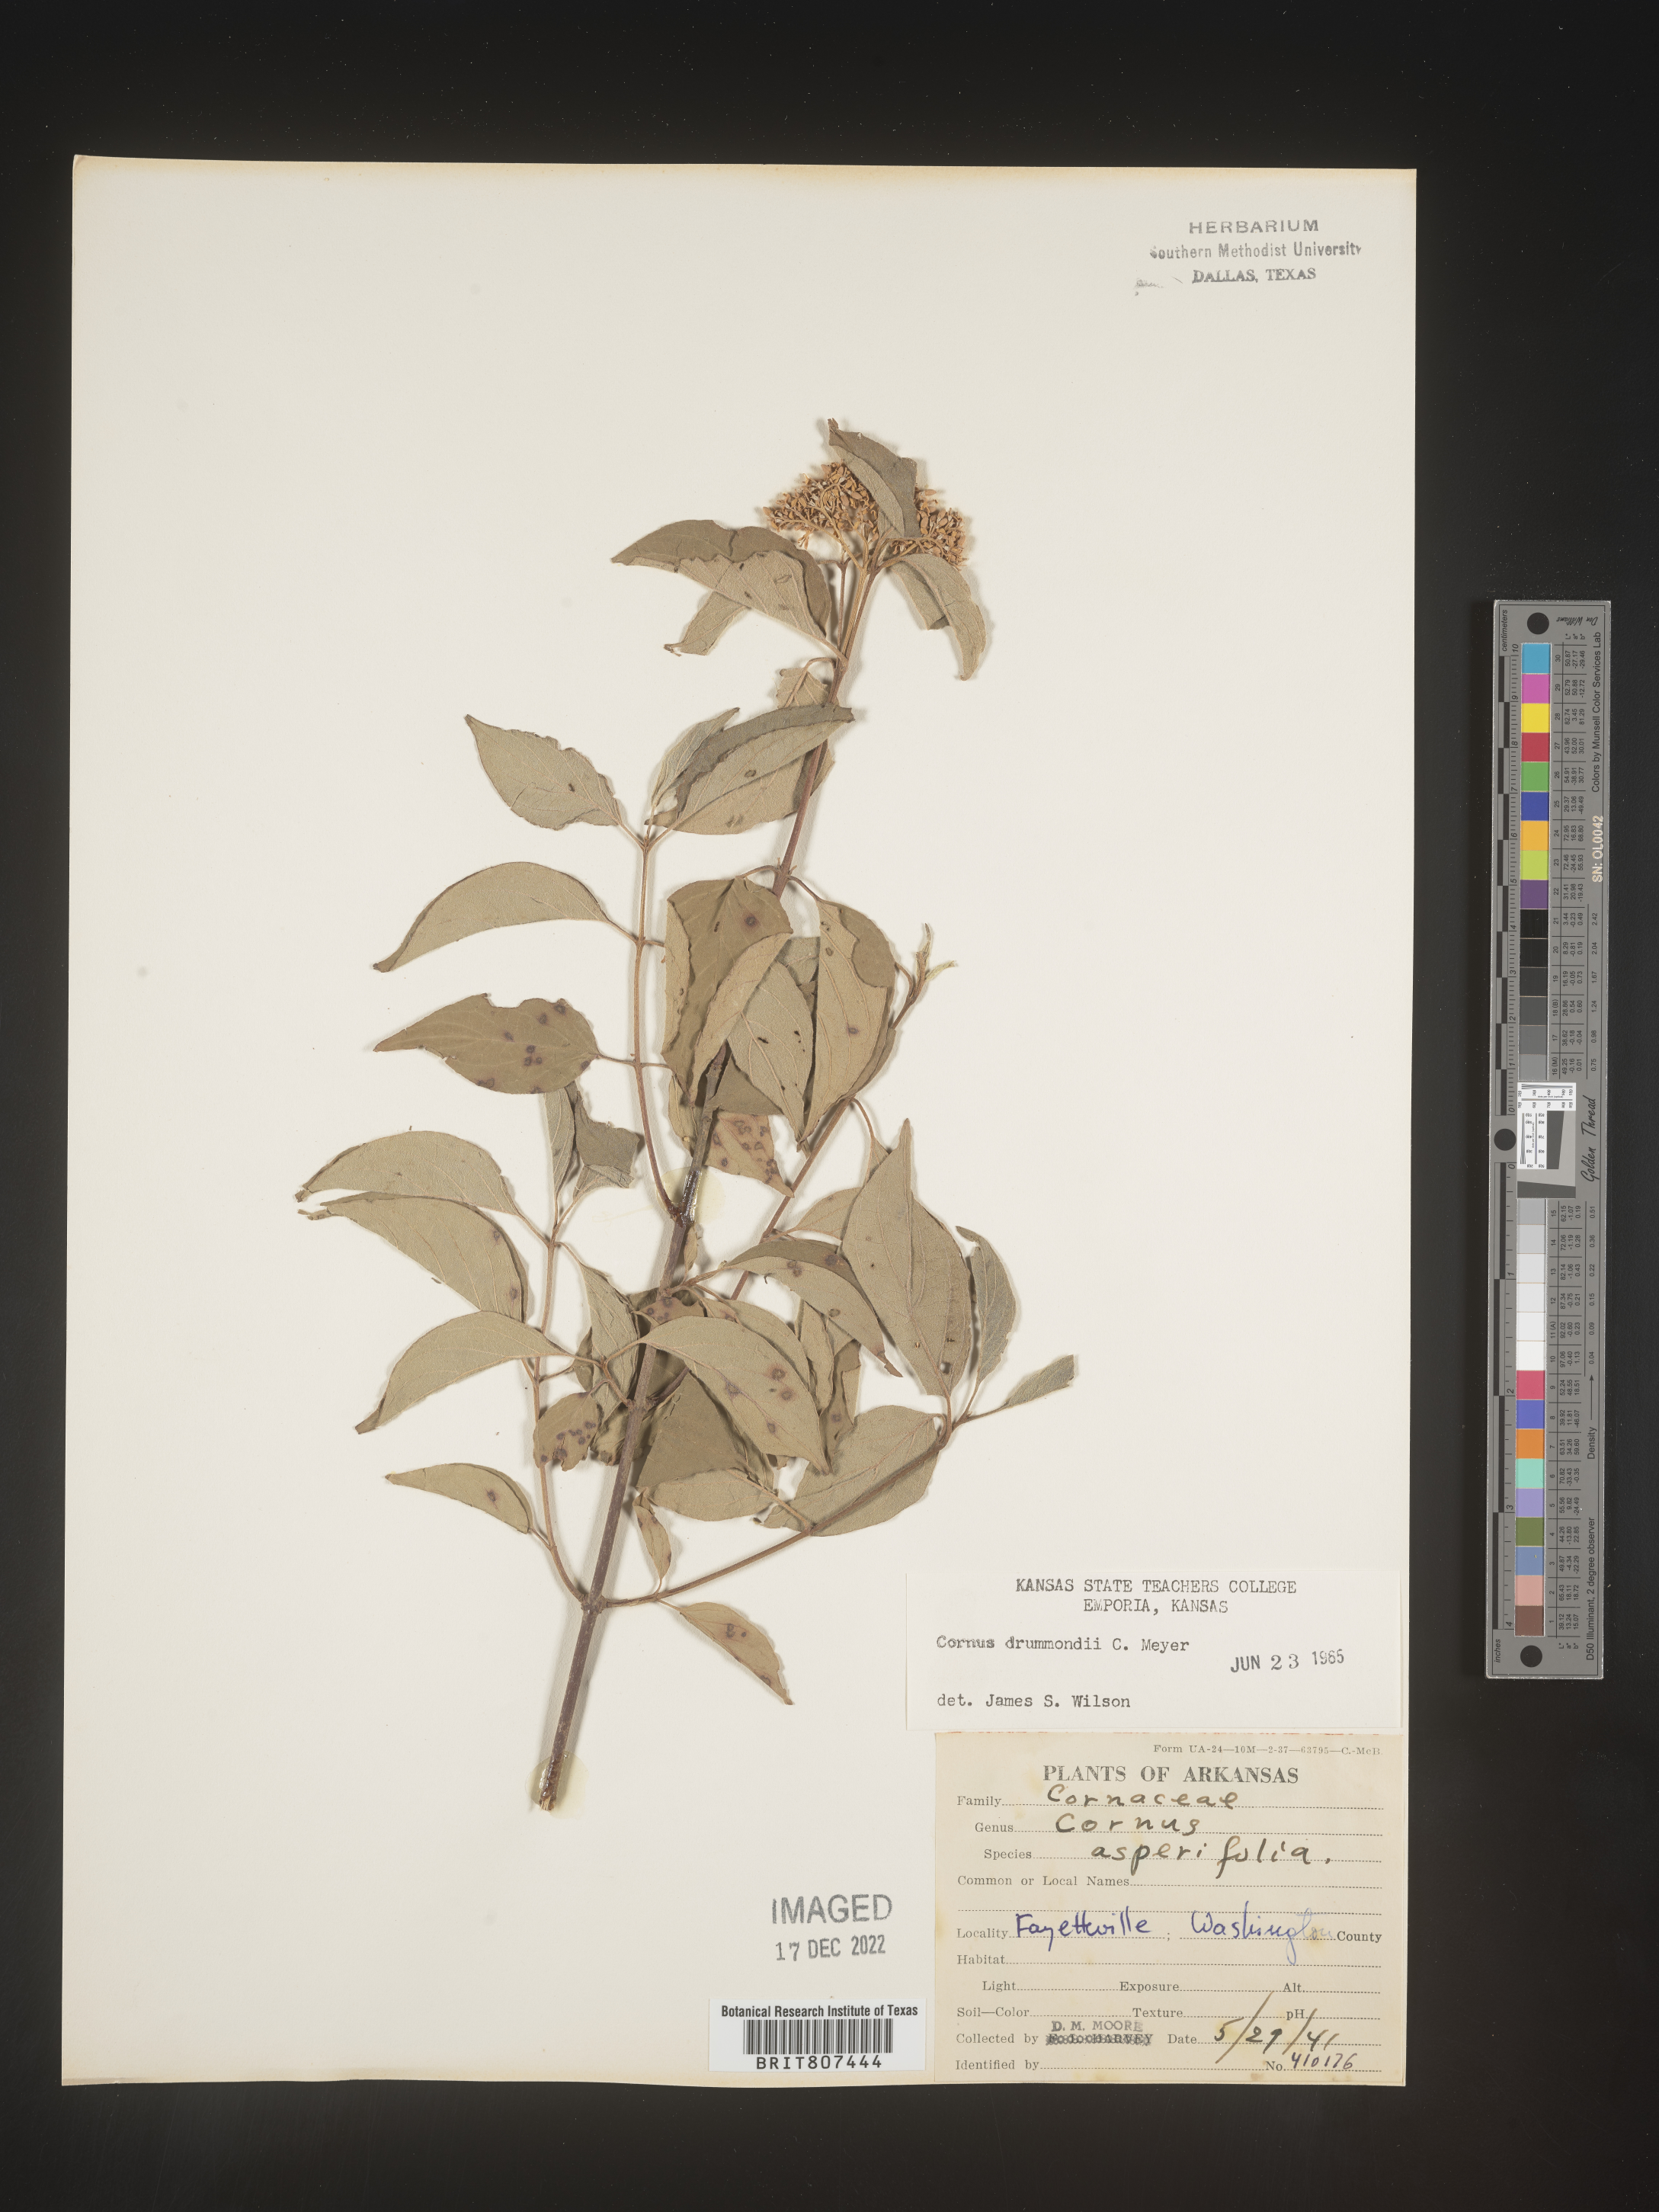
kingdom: Plantae
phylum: Tracheophyta
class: Magnoliopsida
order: Cornales
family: Cornaceae
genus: Cornus
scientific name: Cornus drummondii
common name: Rough-leaf dogwood
